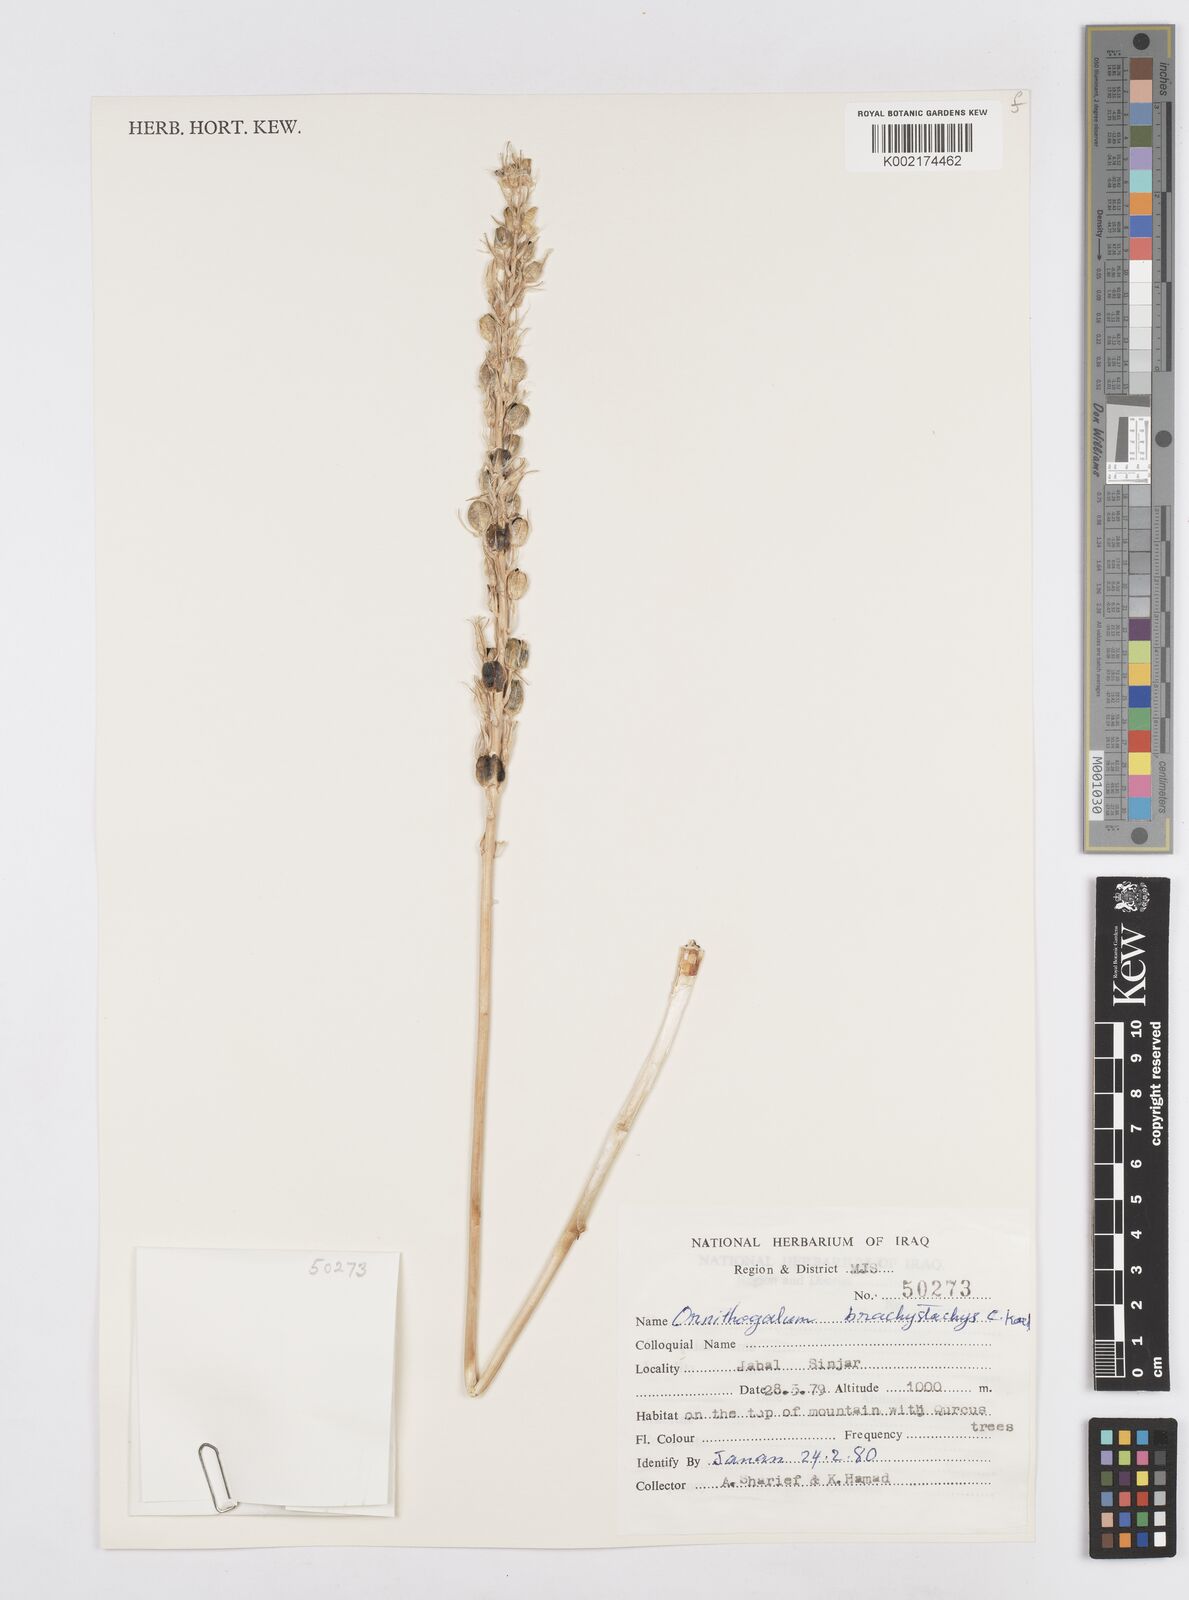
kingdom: Plantae
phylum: Tracheophyta
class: Liliopsida
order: Asparagales
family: Asparagaceae
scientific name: Asparagaceae
